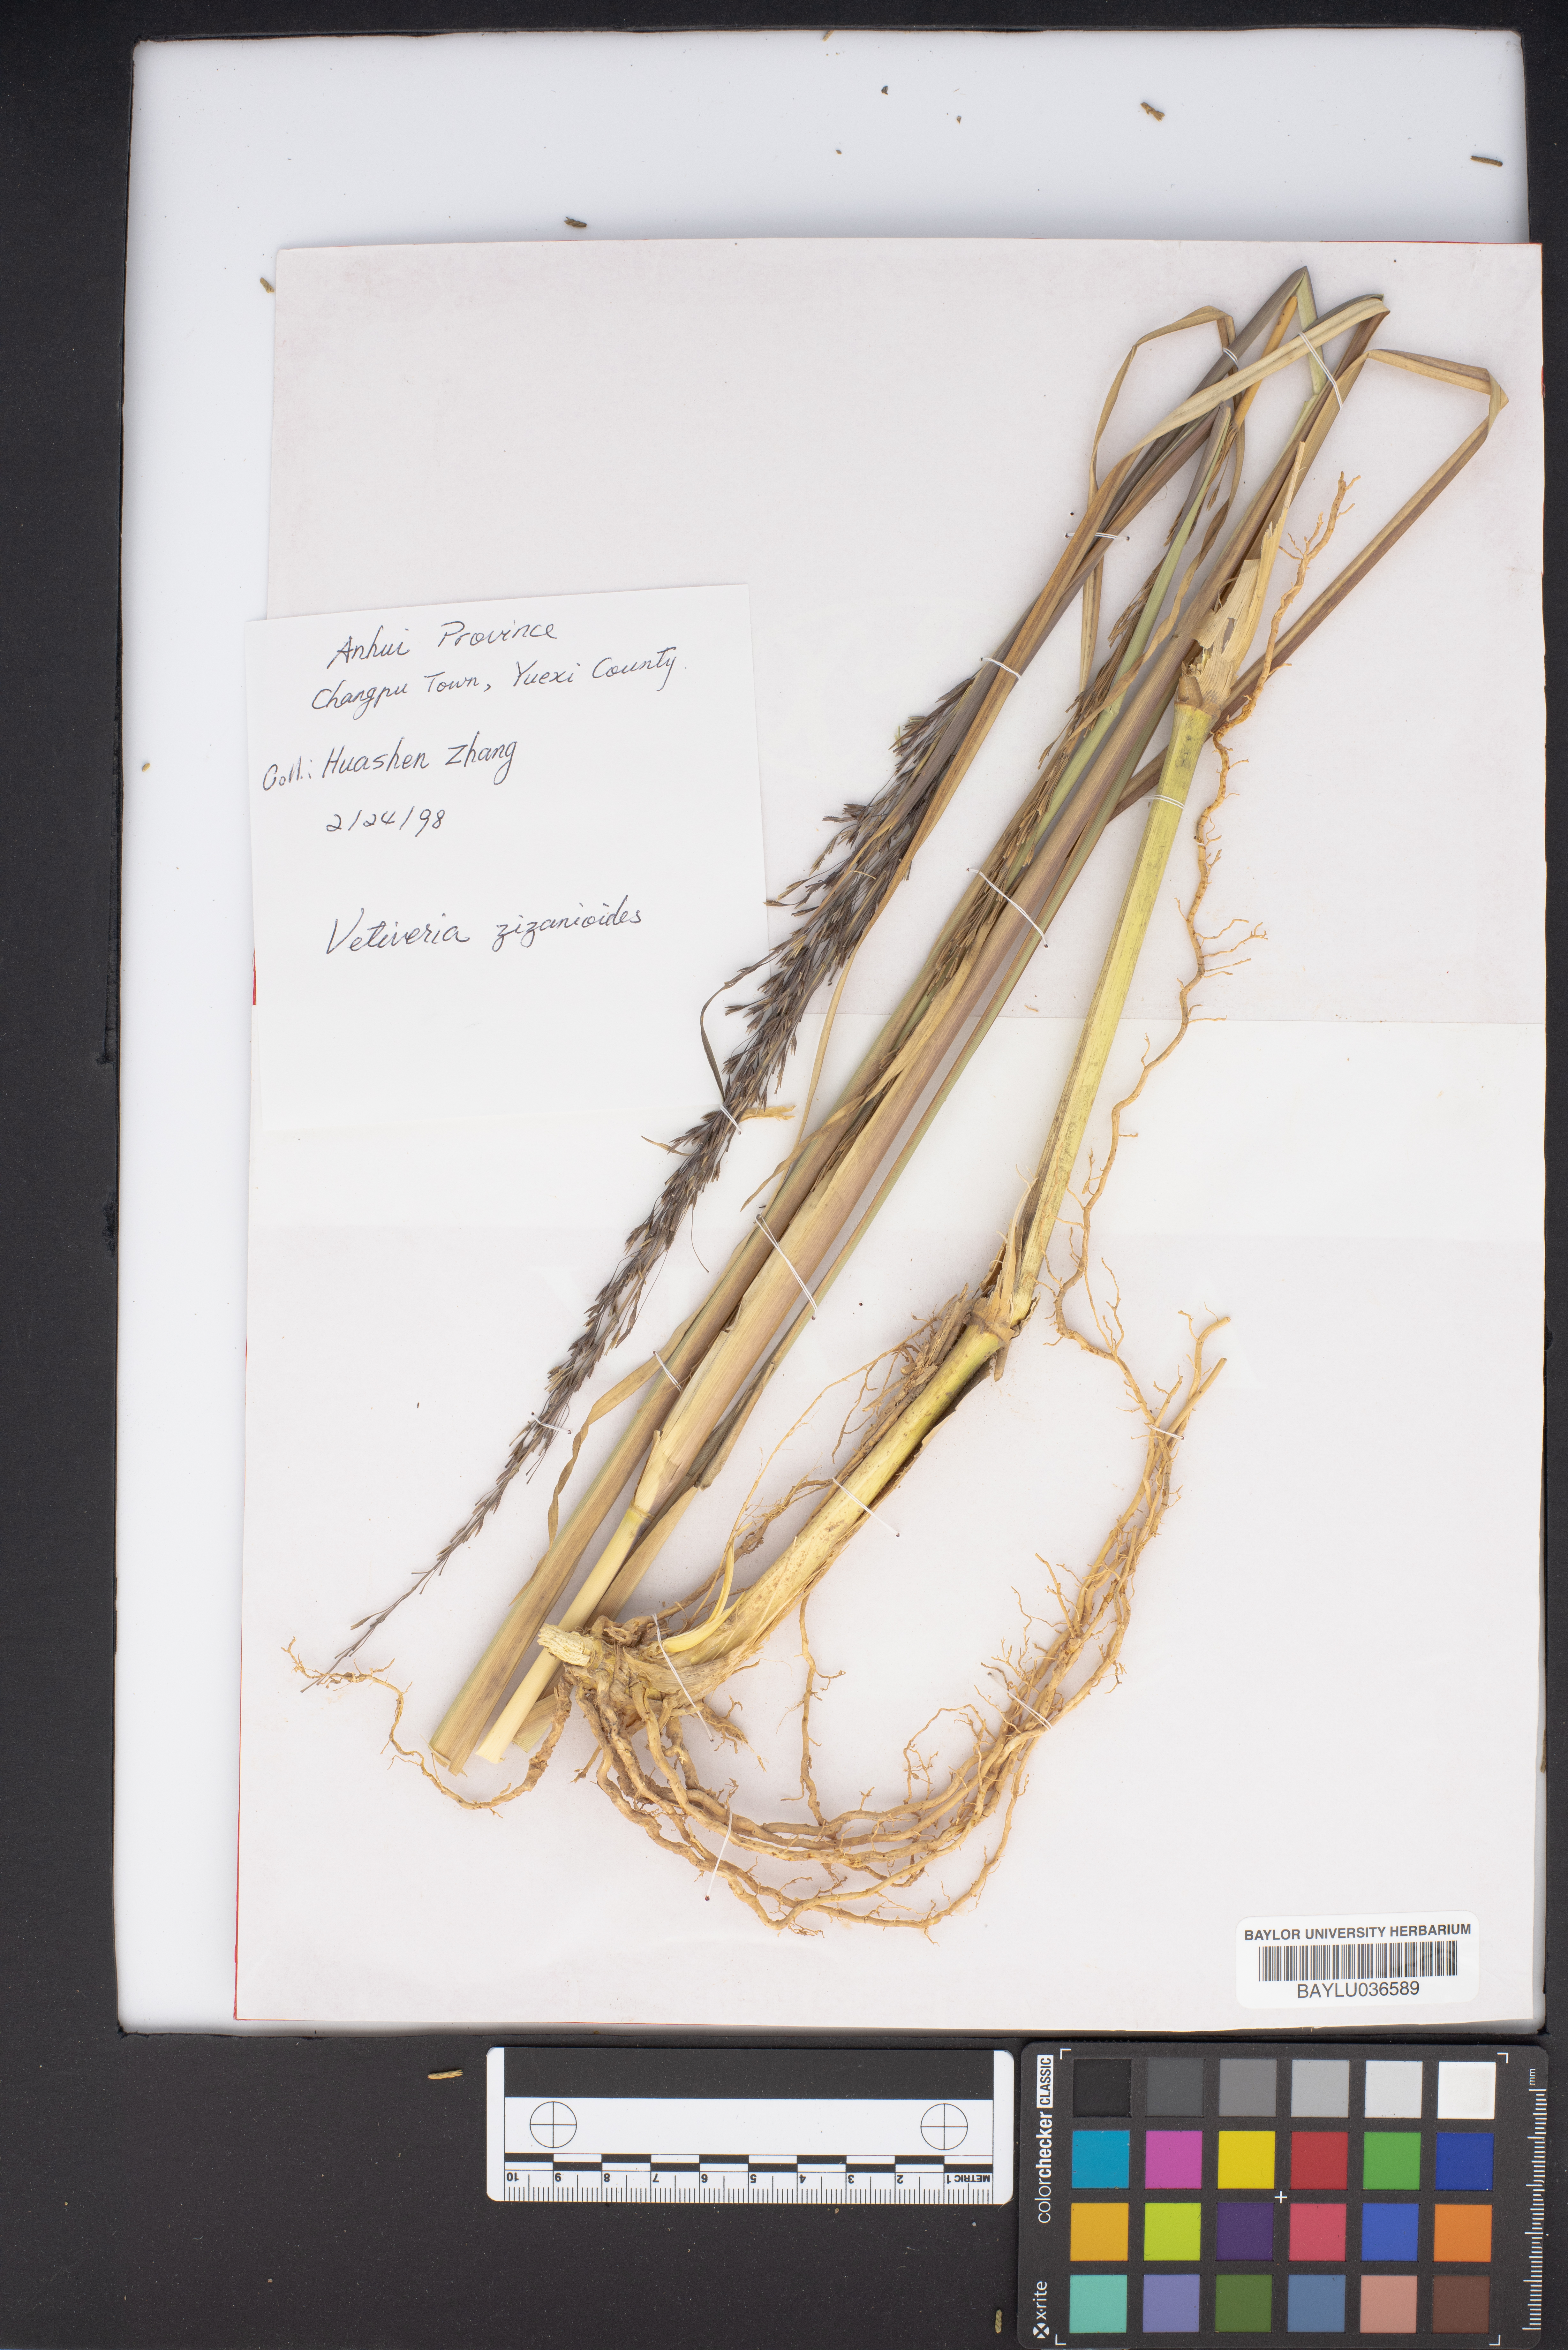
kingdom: Plantae
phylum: Tracheophyta
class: Liliopsida
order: Poales
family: Poaceae
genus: Vetiveria
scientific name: Vetiveria zizanioides
